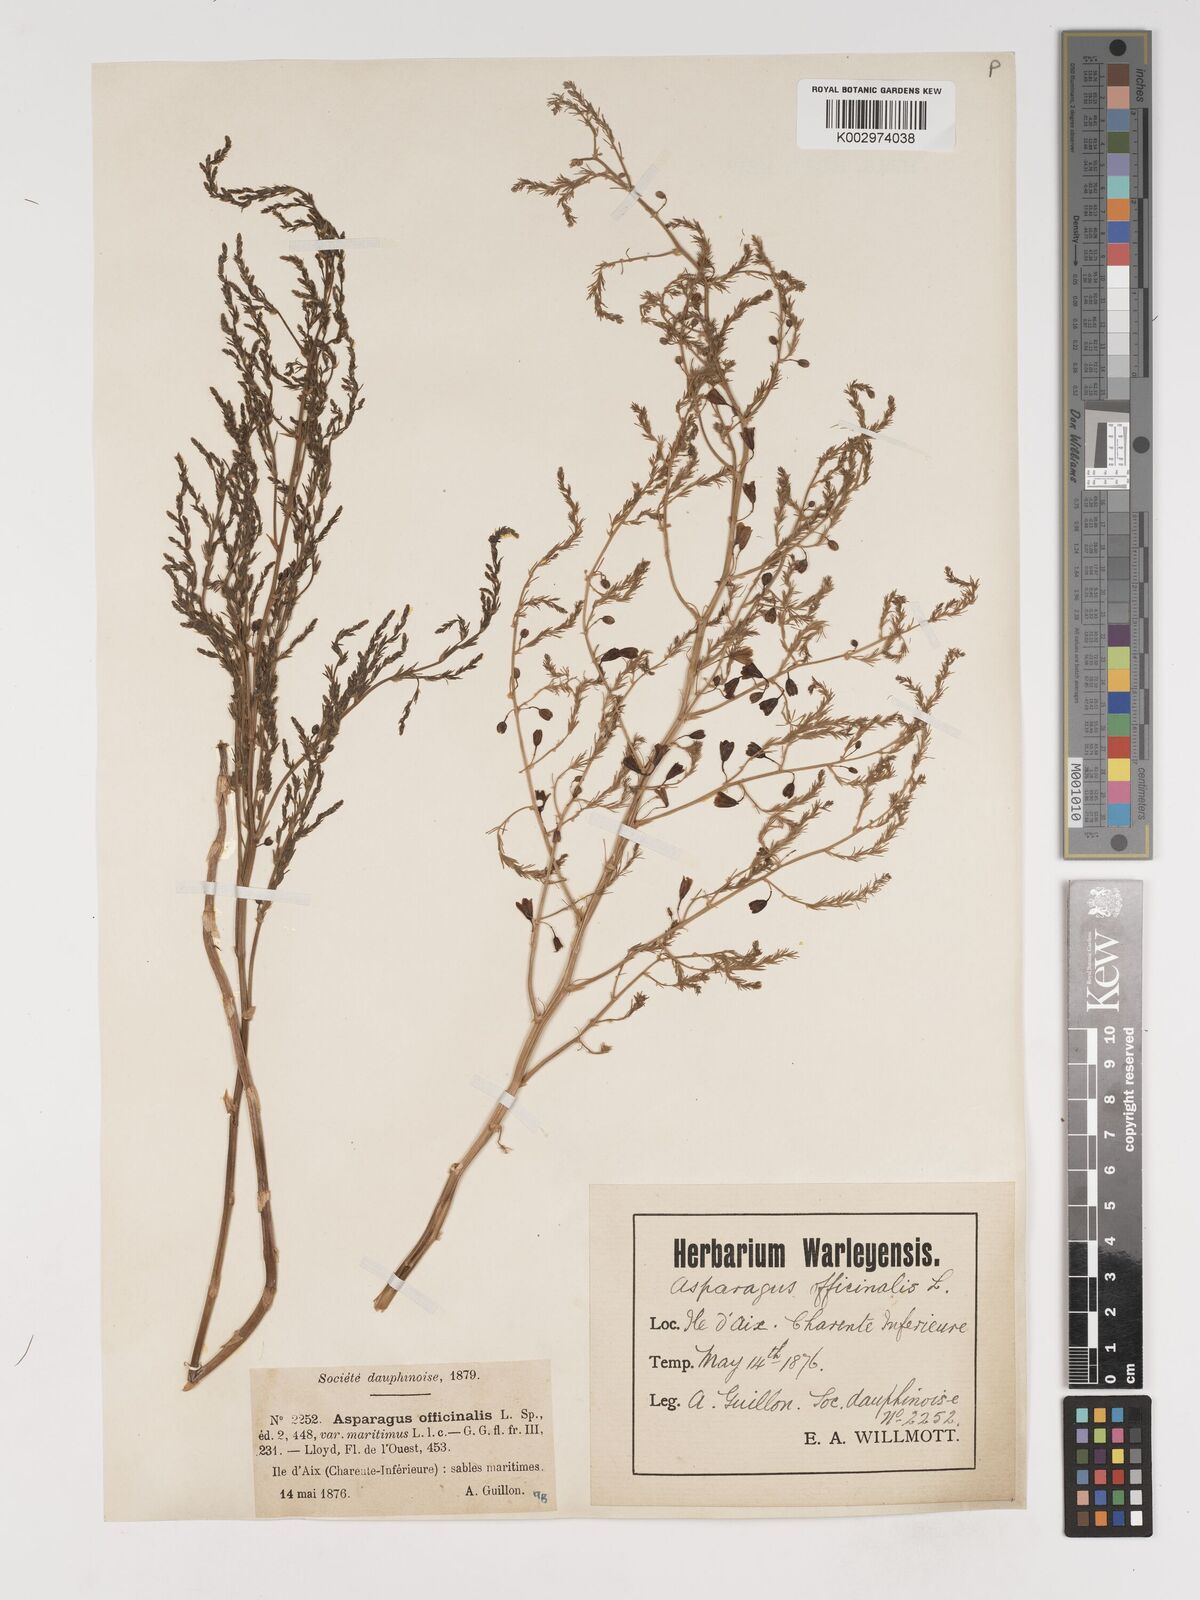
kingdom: Plantae
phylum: Tracheophyta
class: Liliopsida
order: Asparagales
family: Asparagaceae
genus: Asparagus
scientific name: Asparagus maritimus
